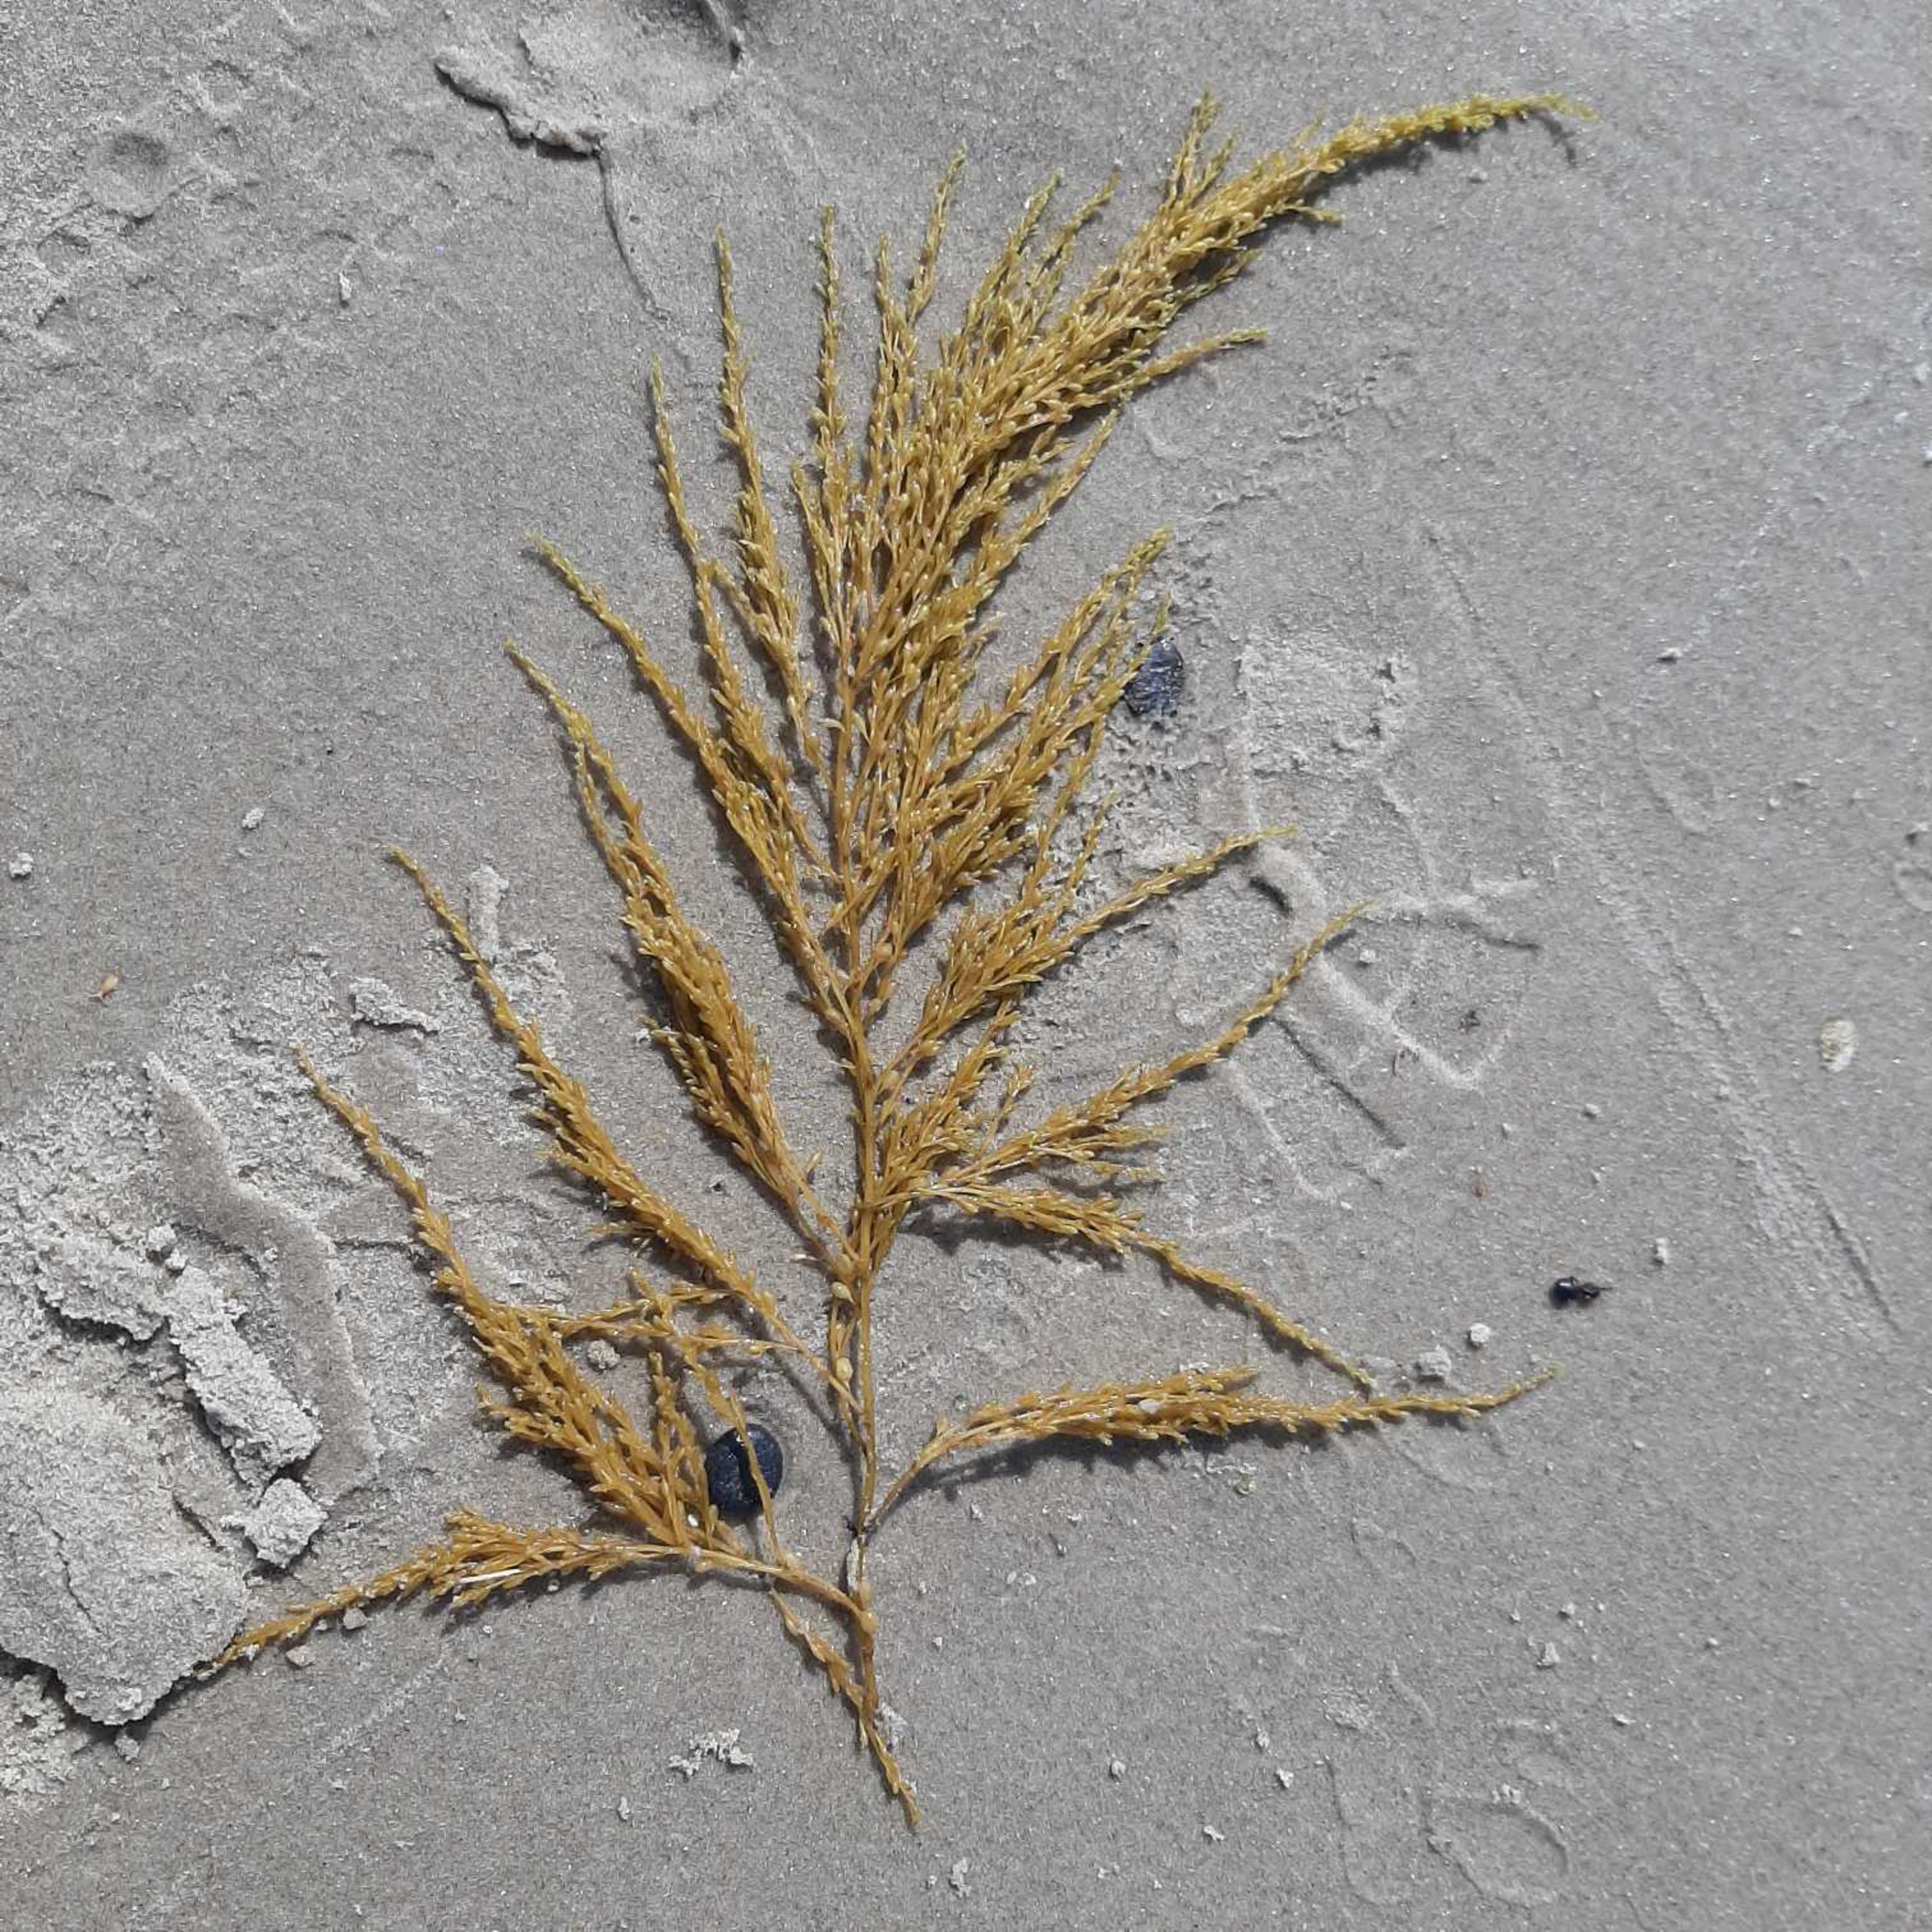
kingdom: Chromista
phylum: Ochrophyta
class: Phaeophyceae
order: Fucales
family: Sargassaceae
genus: Sargassum
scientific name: Sargassum muticum
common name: Butblæret sargassotang
